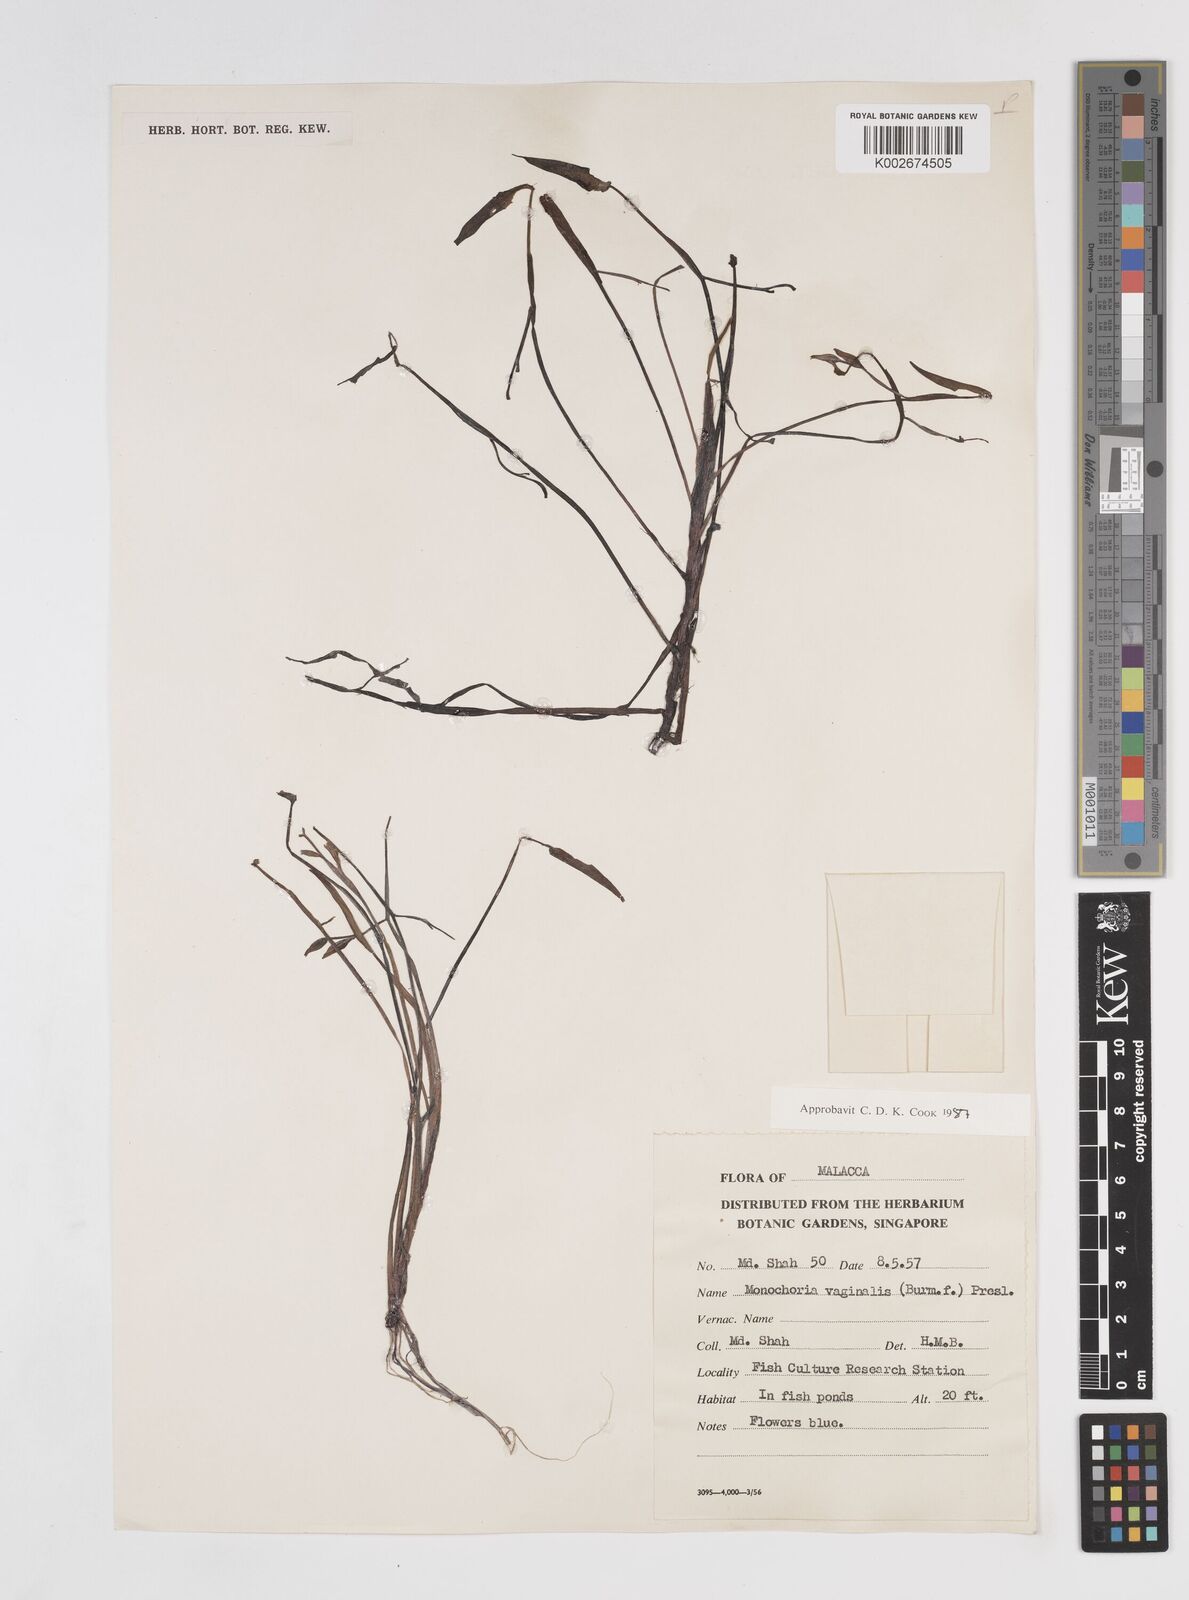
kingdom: Plantae
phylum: Tracheophyta
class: Liliopsida
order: Commelinales
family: Pontederiaceae
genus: Pontederia
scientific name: Pontederia vaginalis
